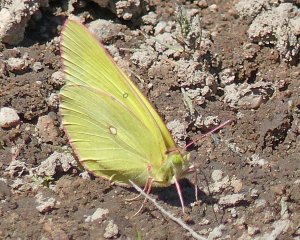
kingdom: Animalia
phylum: Arthropoda
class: Insecta
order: Lepidoptera
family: Pieridae
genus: Colias
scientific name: Colias interior
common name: Pink-edged Sulphur
